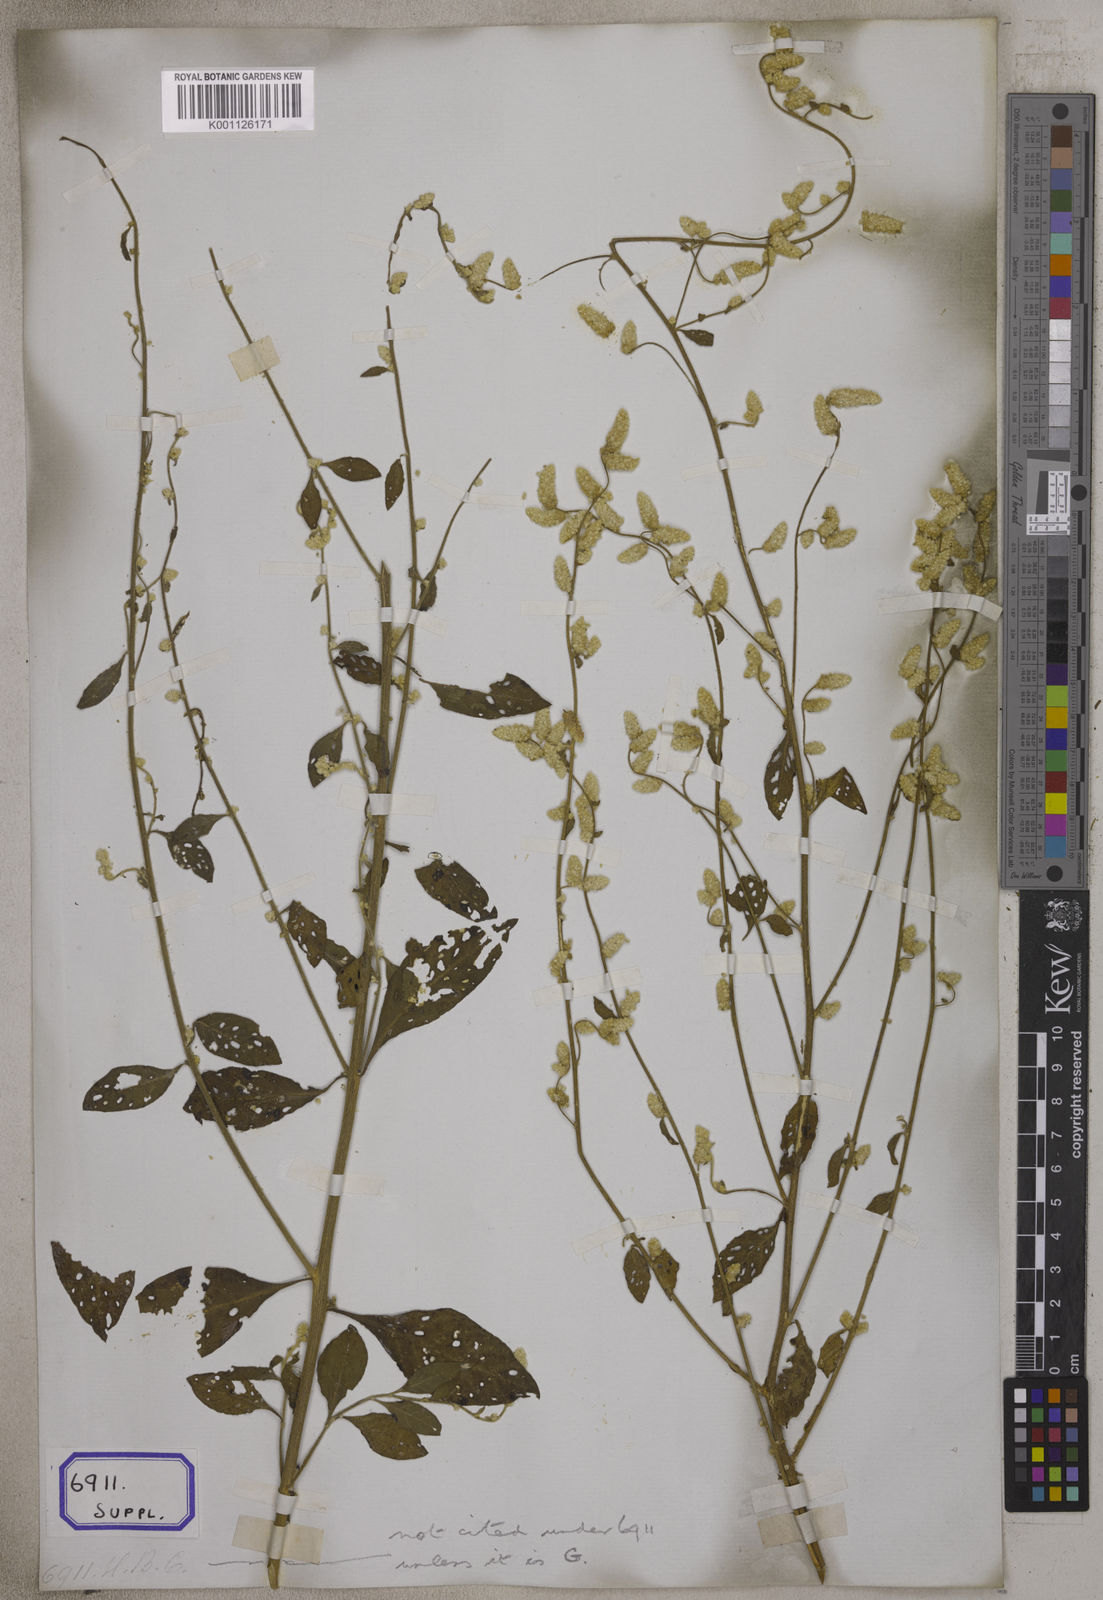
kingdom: Plantae
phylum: Tracheophyta
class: Magnoliopsida
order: Caryophyllales
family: Amaranthaceae
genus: Ouret
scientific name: Ouret sanguinolenta
